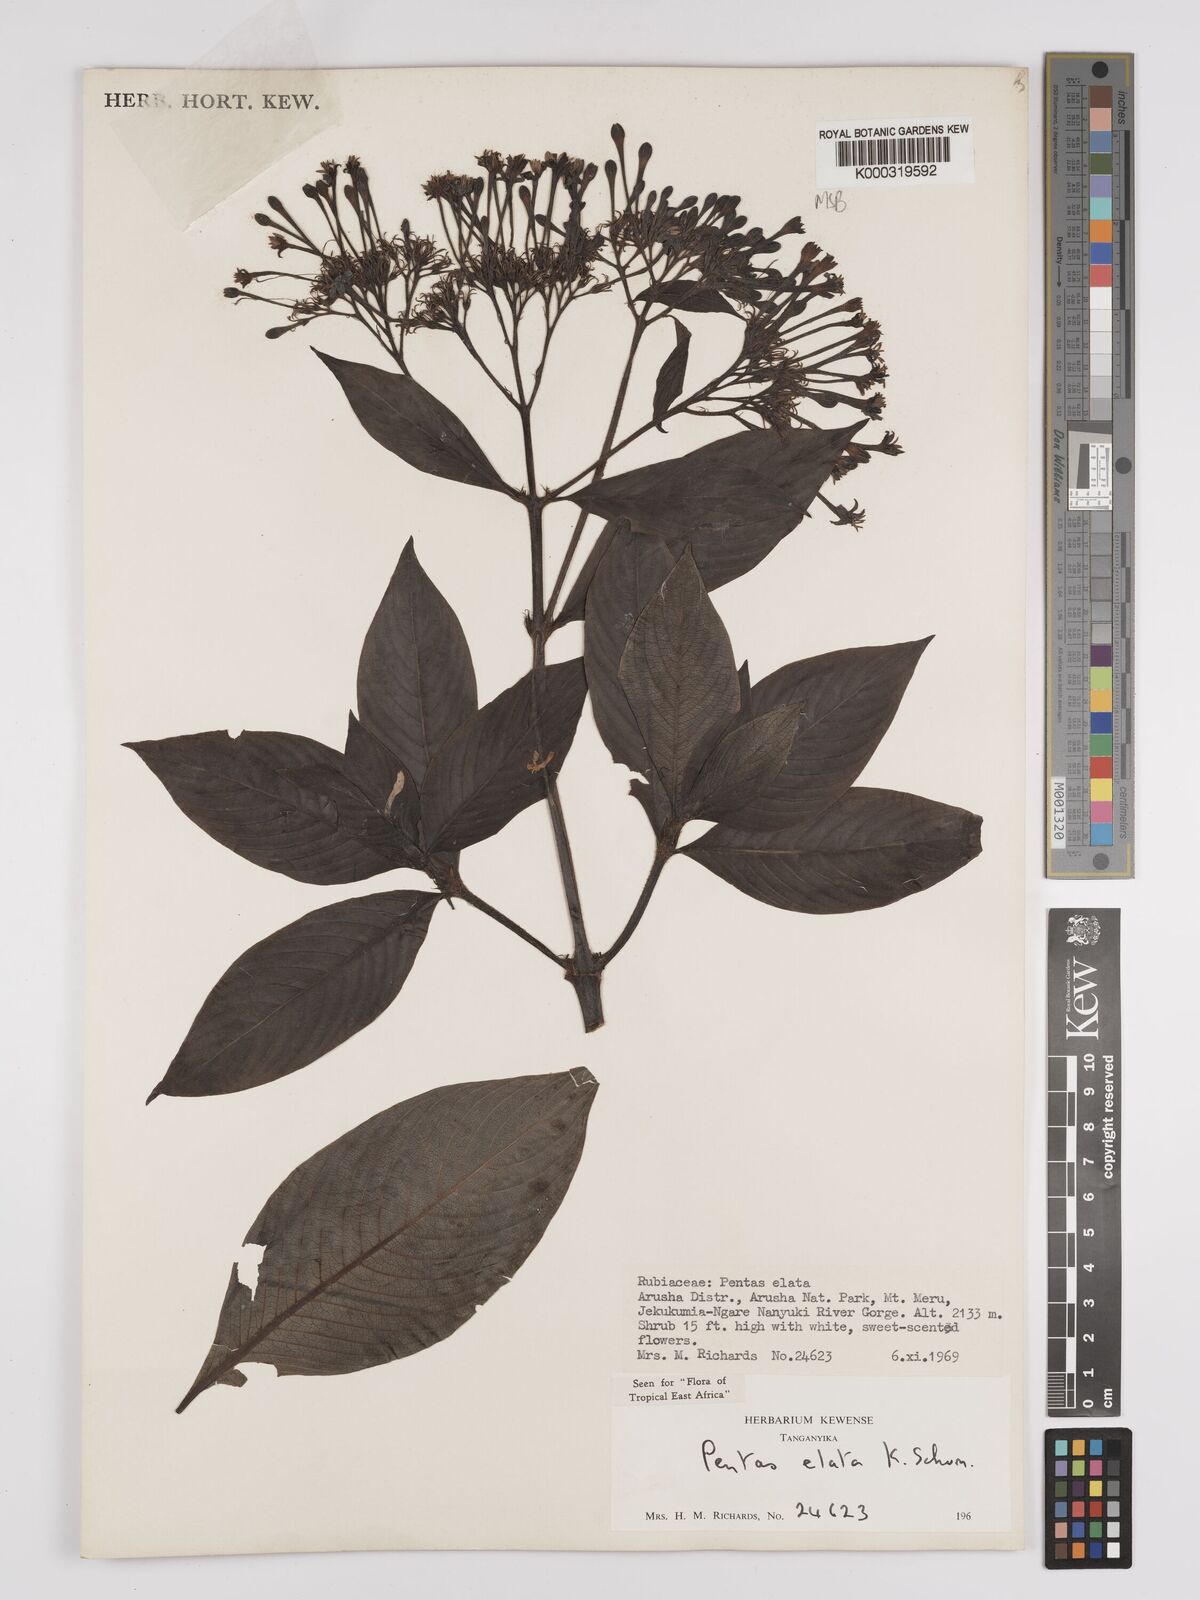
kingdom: Plantae
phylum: Tracheophyta
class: Magnoliopsida
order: Gentianales
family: Rubiaceae
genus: Phyllopentas
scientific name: Phyllopentas elata
